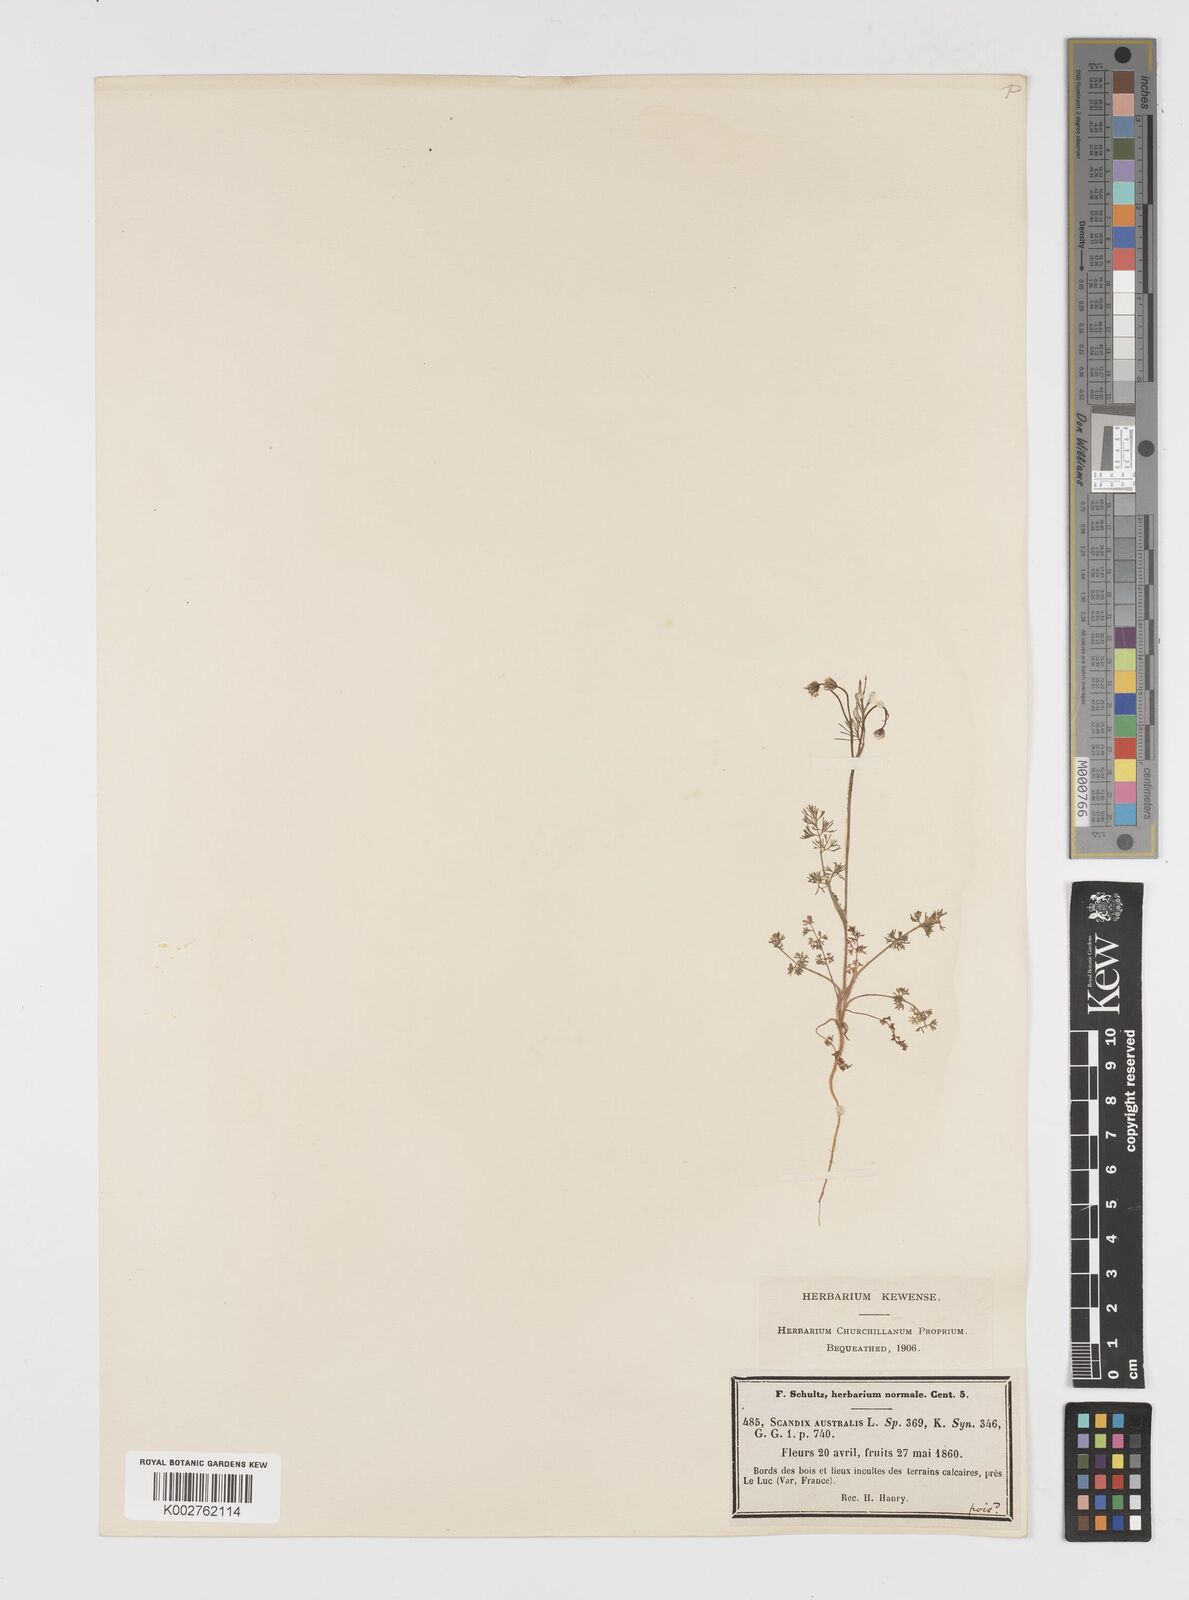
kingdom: Plantae
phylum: Tracheophyta
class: Magnoliopsida
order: Apiales
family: Apiaceae
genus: Scandix
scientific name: Scandix australis
